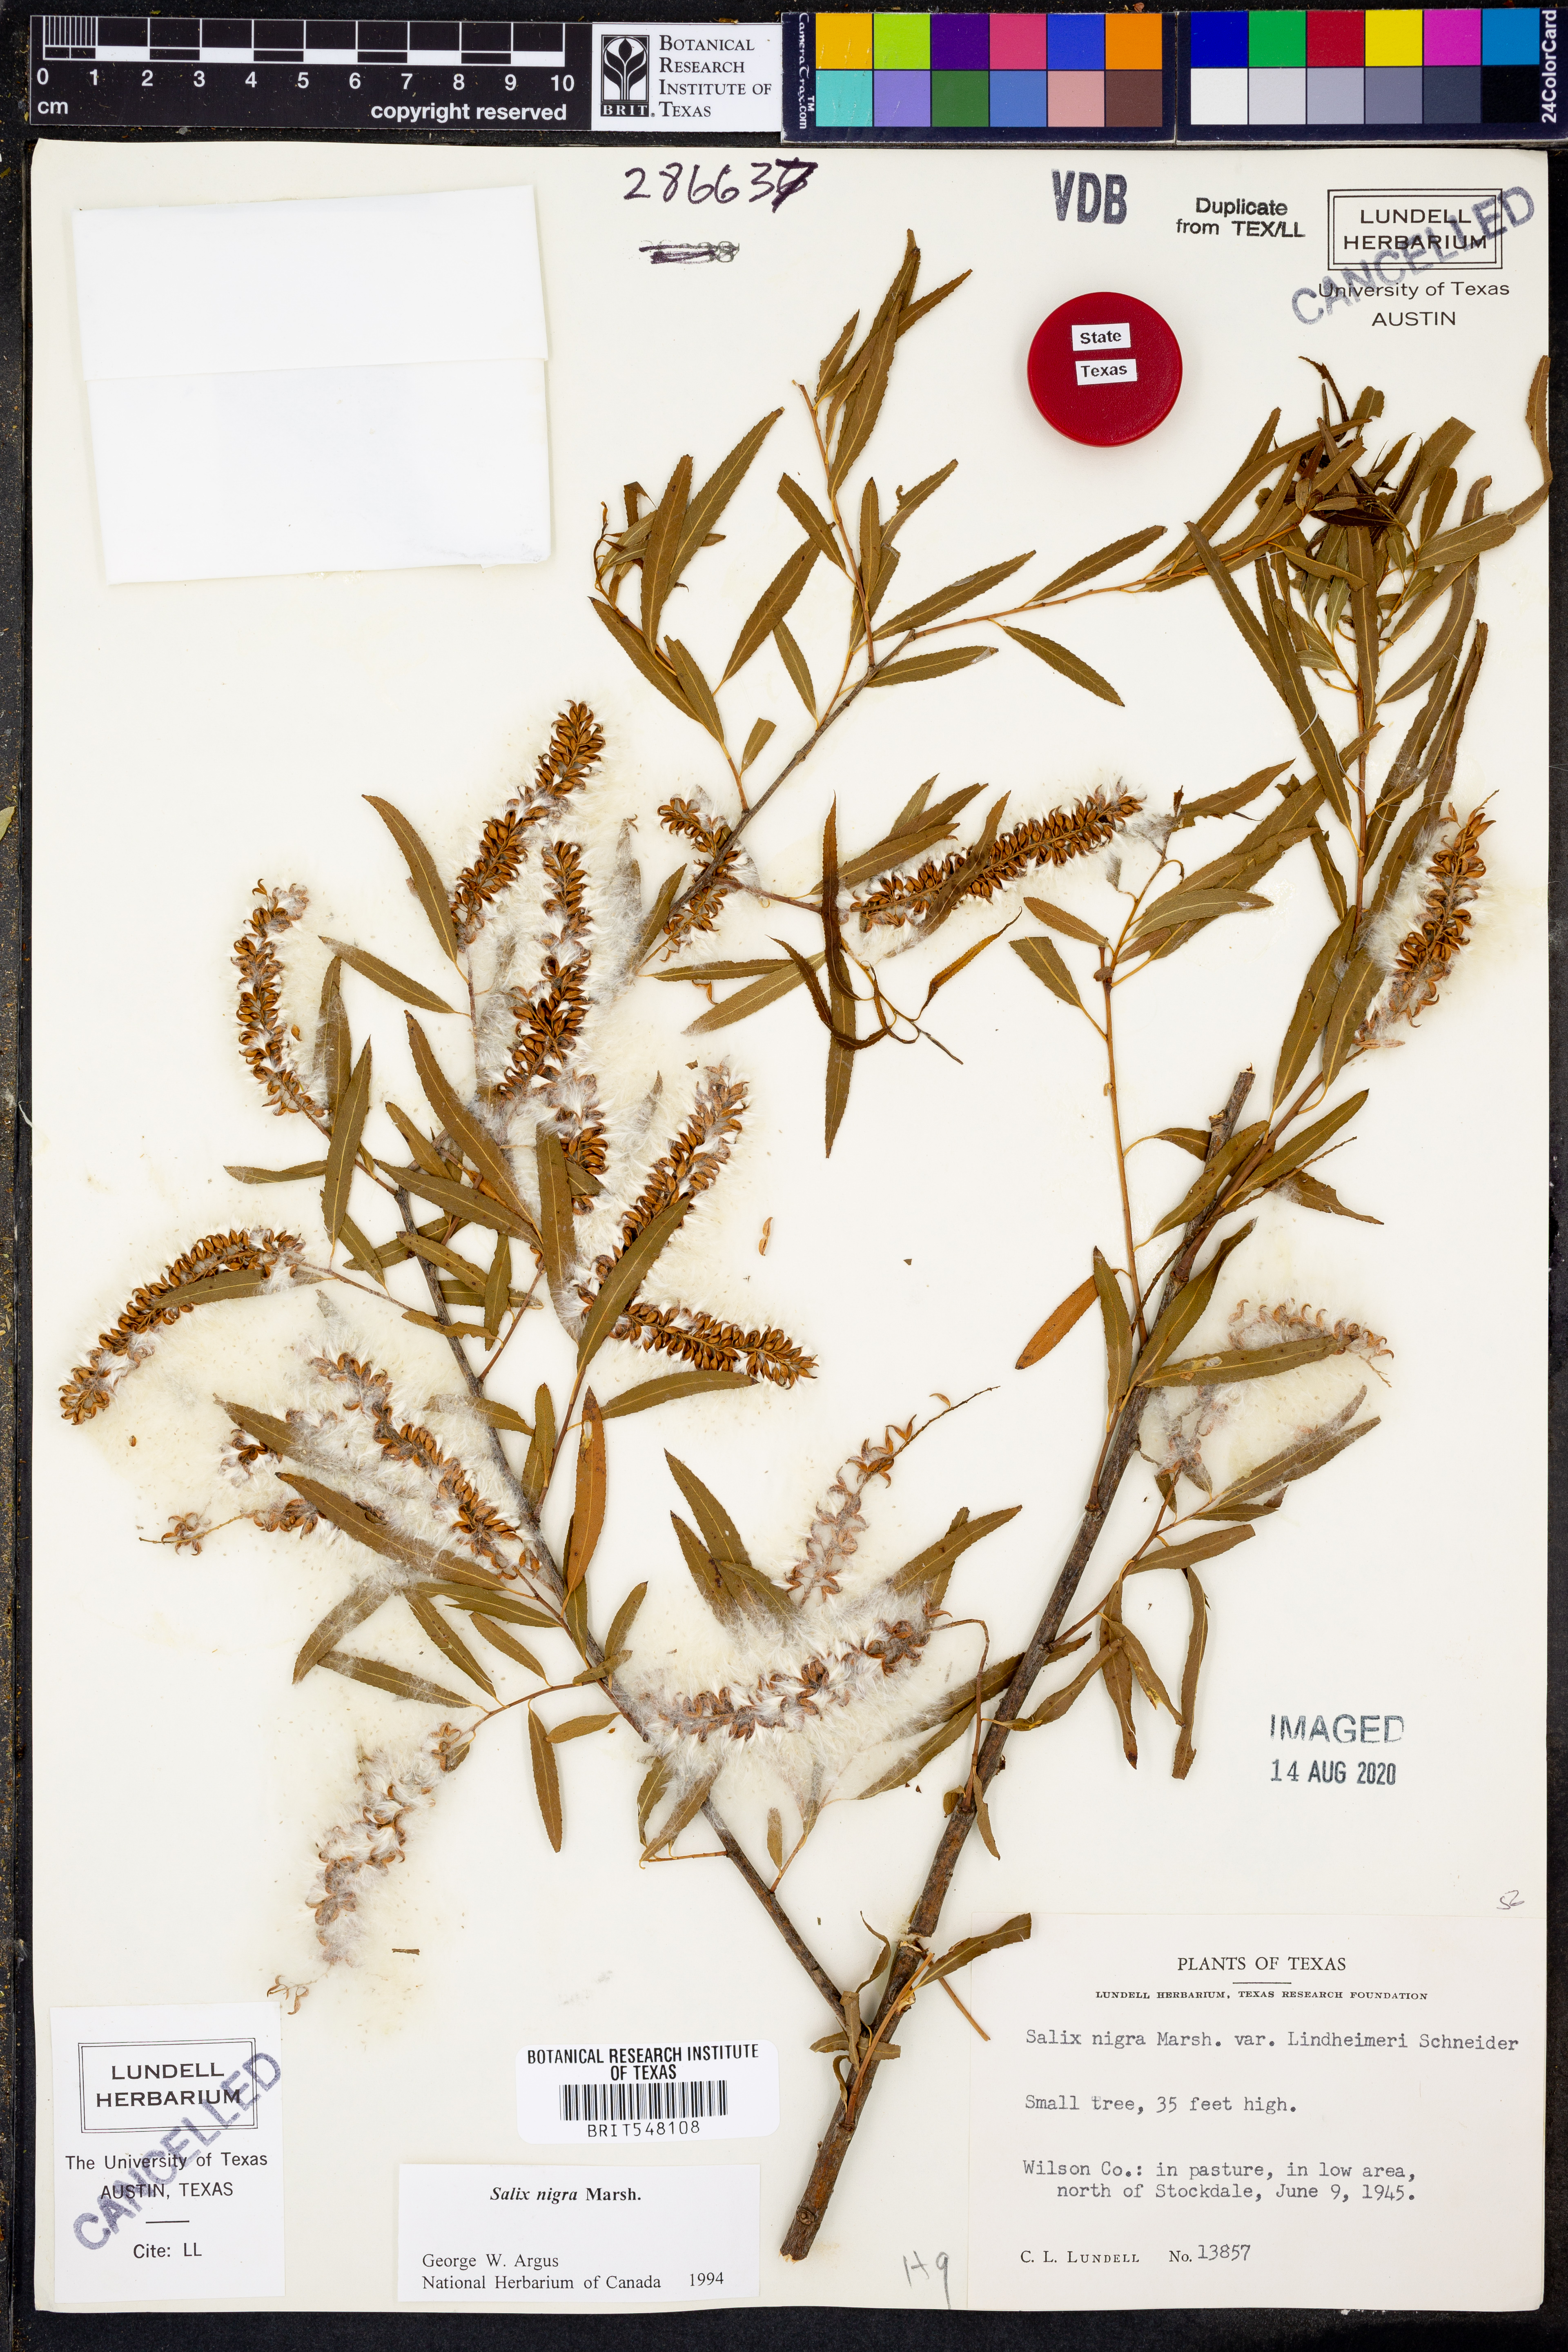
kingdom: Plantae
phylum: Tracheophyta
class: Magnoliopsida
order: Malpighiales
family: Salicaceae
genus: Salix
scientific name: Salix nigra
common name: Black willow
